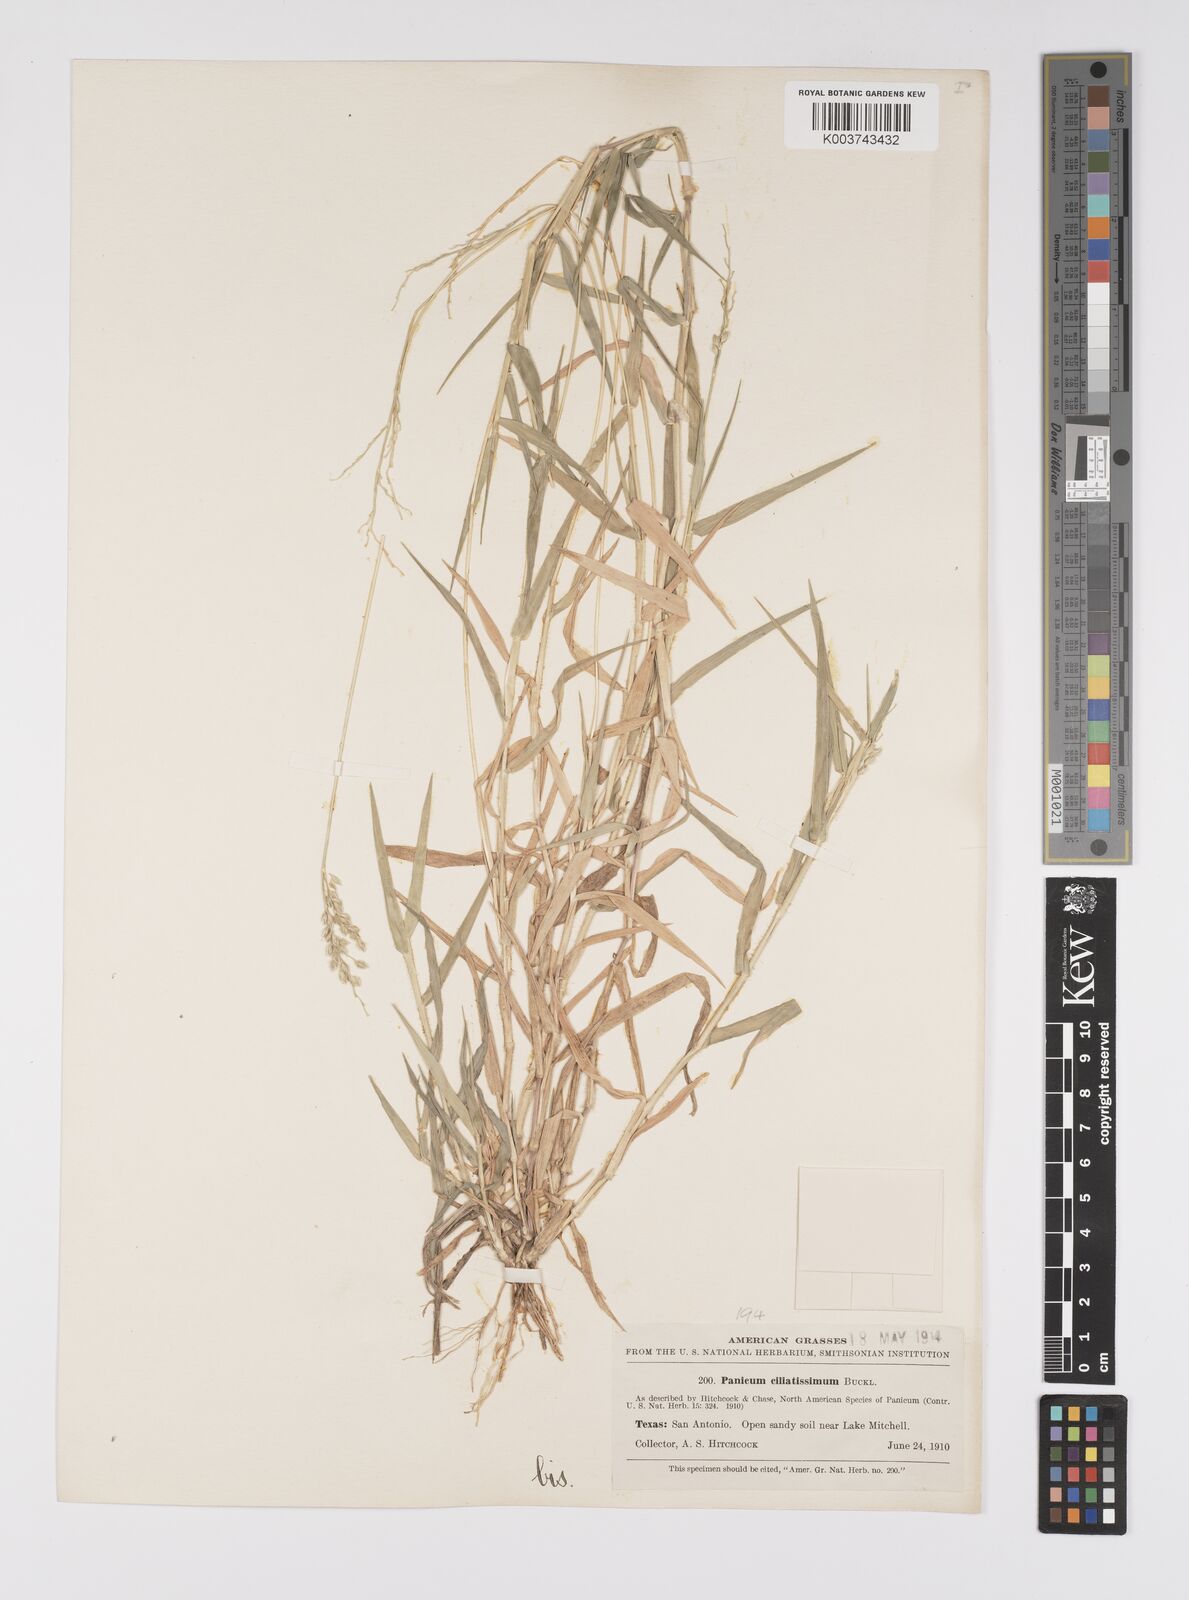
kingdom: Plantae
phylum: Tracheophyta
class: Liliopsida
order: Poales
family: Poaceae
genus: Urochloa
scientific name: Urochloa ciliatissima
